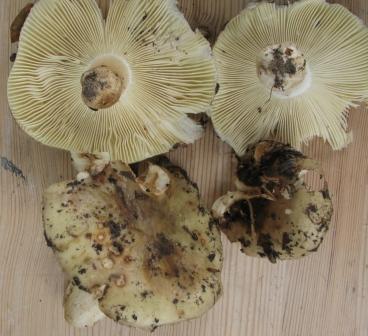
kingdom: Fungi
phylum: Basidiomycota
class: Agaricomycetes
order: Russulales
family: Russulaceae
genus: Russula
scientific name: Russula viscida
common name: knippe-skørhat
